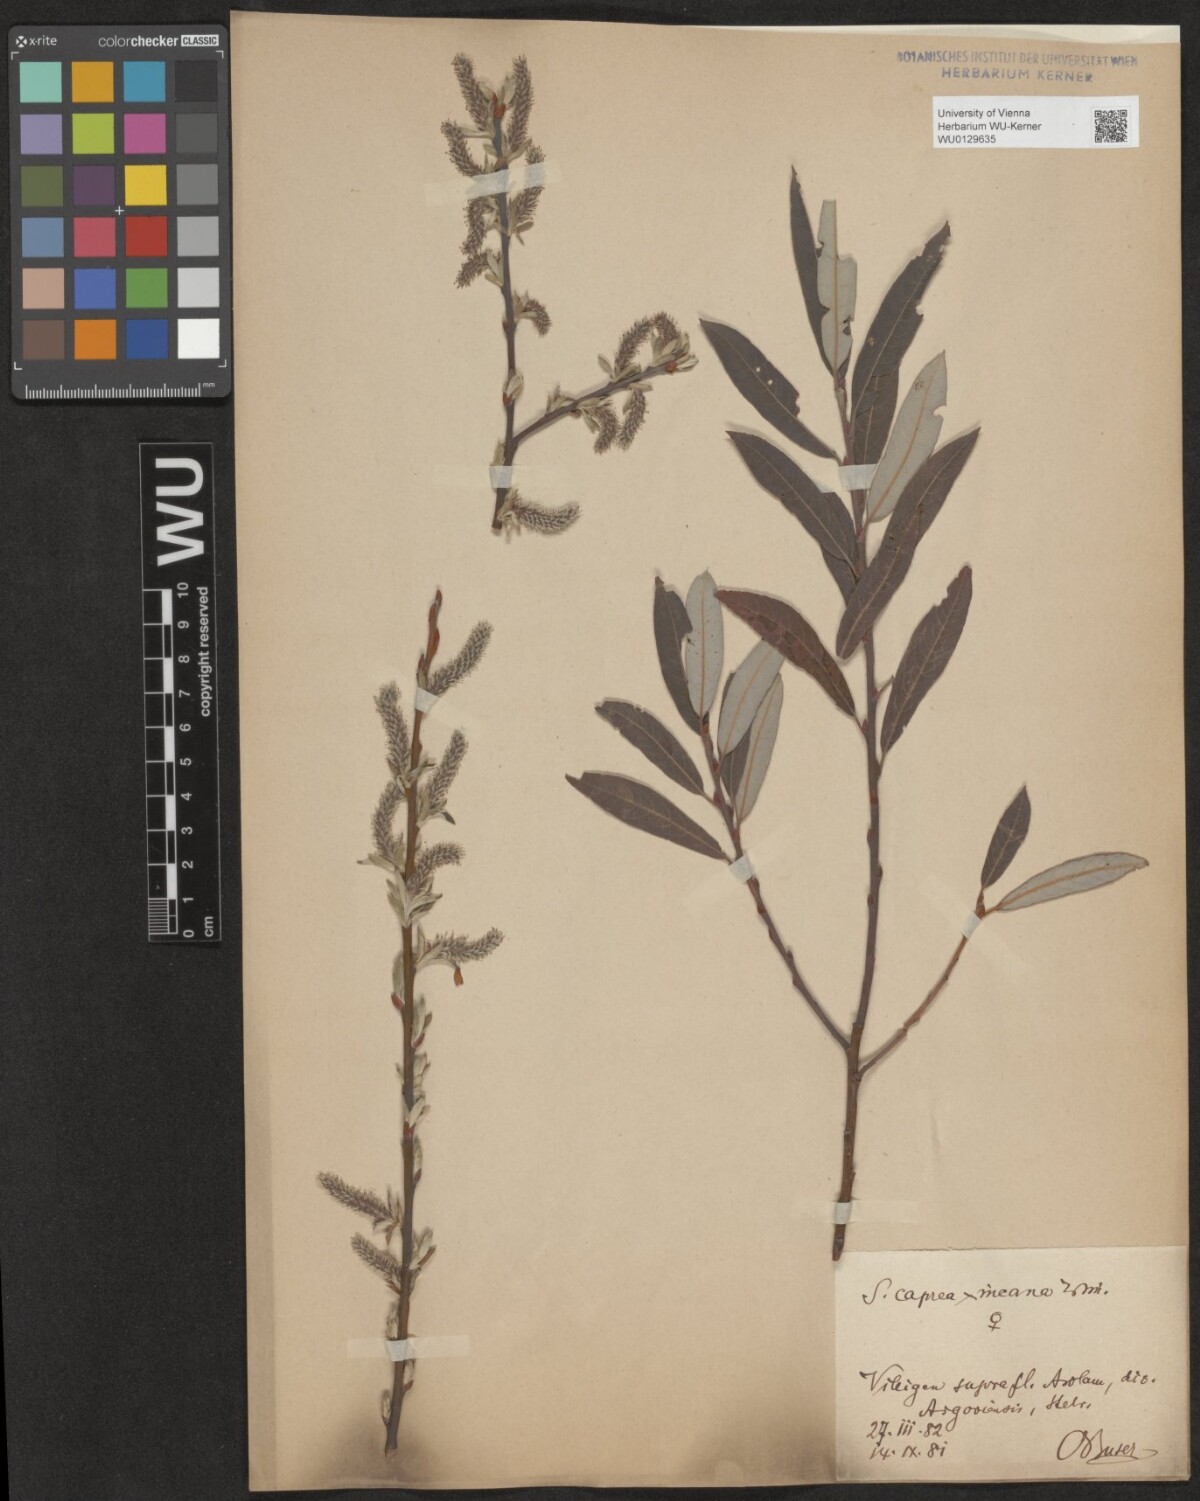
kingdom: Plantae
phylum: Tracheophyta
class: Magnoliopsida
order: Malpighiales
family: Salicaceae
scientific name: Salicaceae
